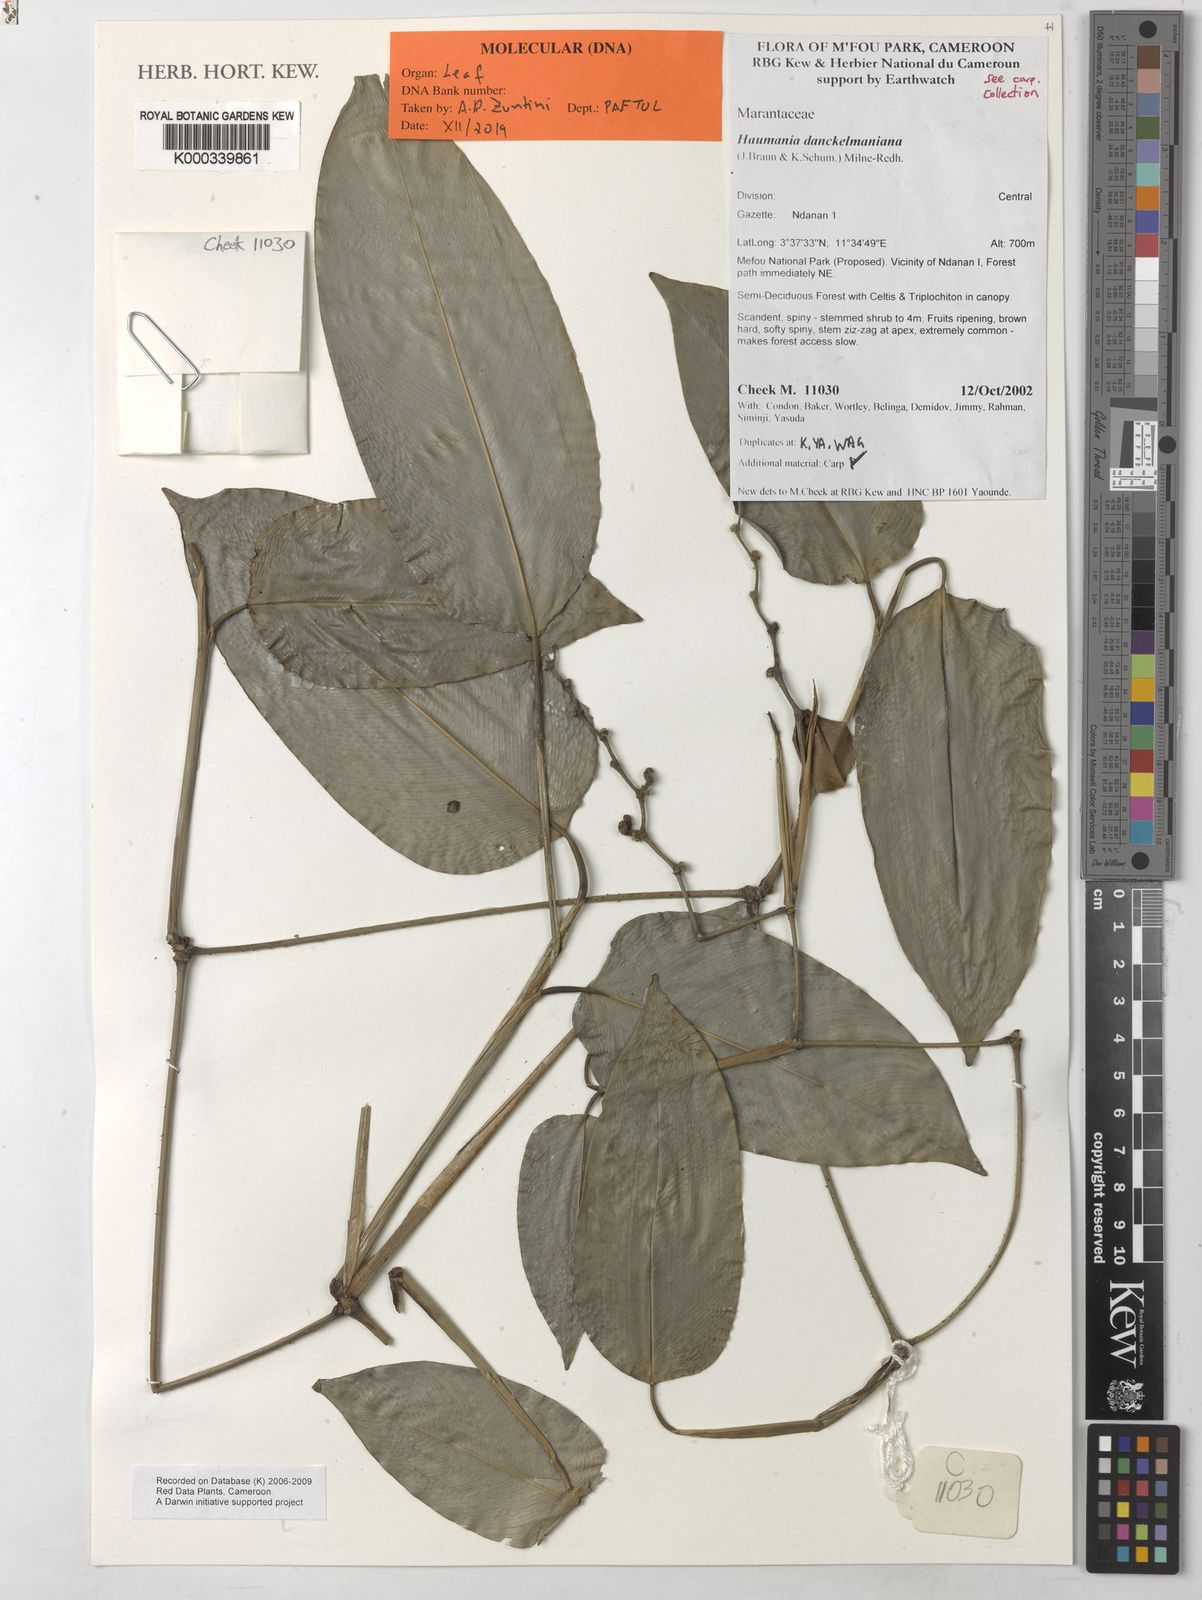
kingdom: Plantae
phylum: Tracheophyta
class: Liliopsida
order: Zingiberales
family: Marantaceae
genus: Marantochloa
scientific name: Marantochloa conferta
